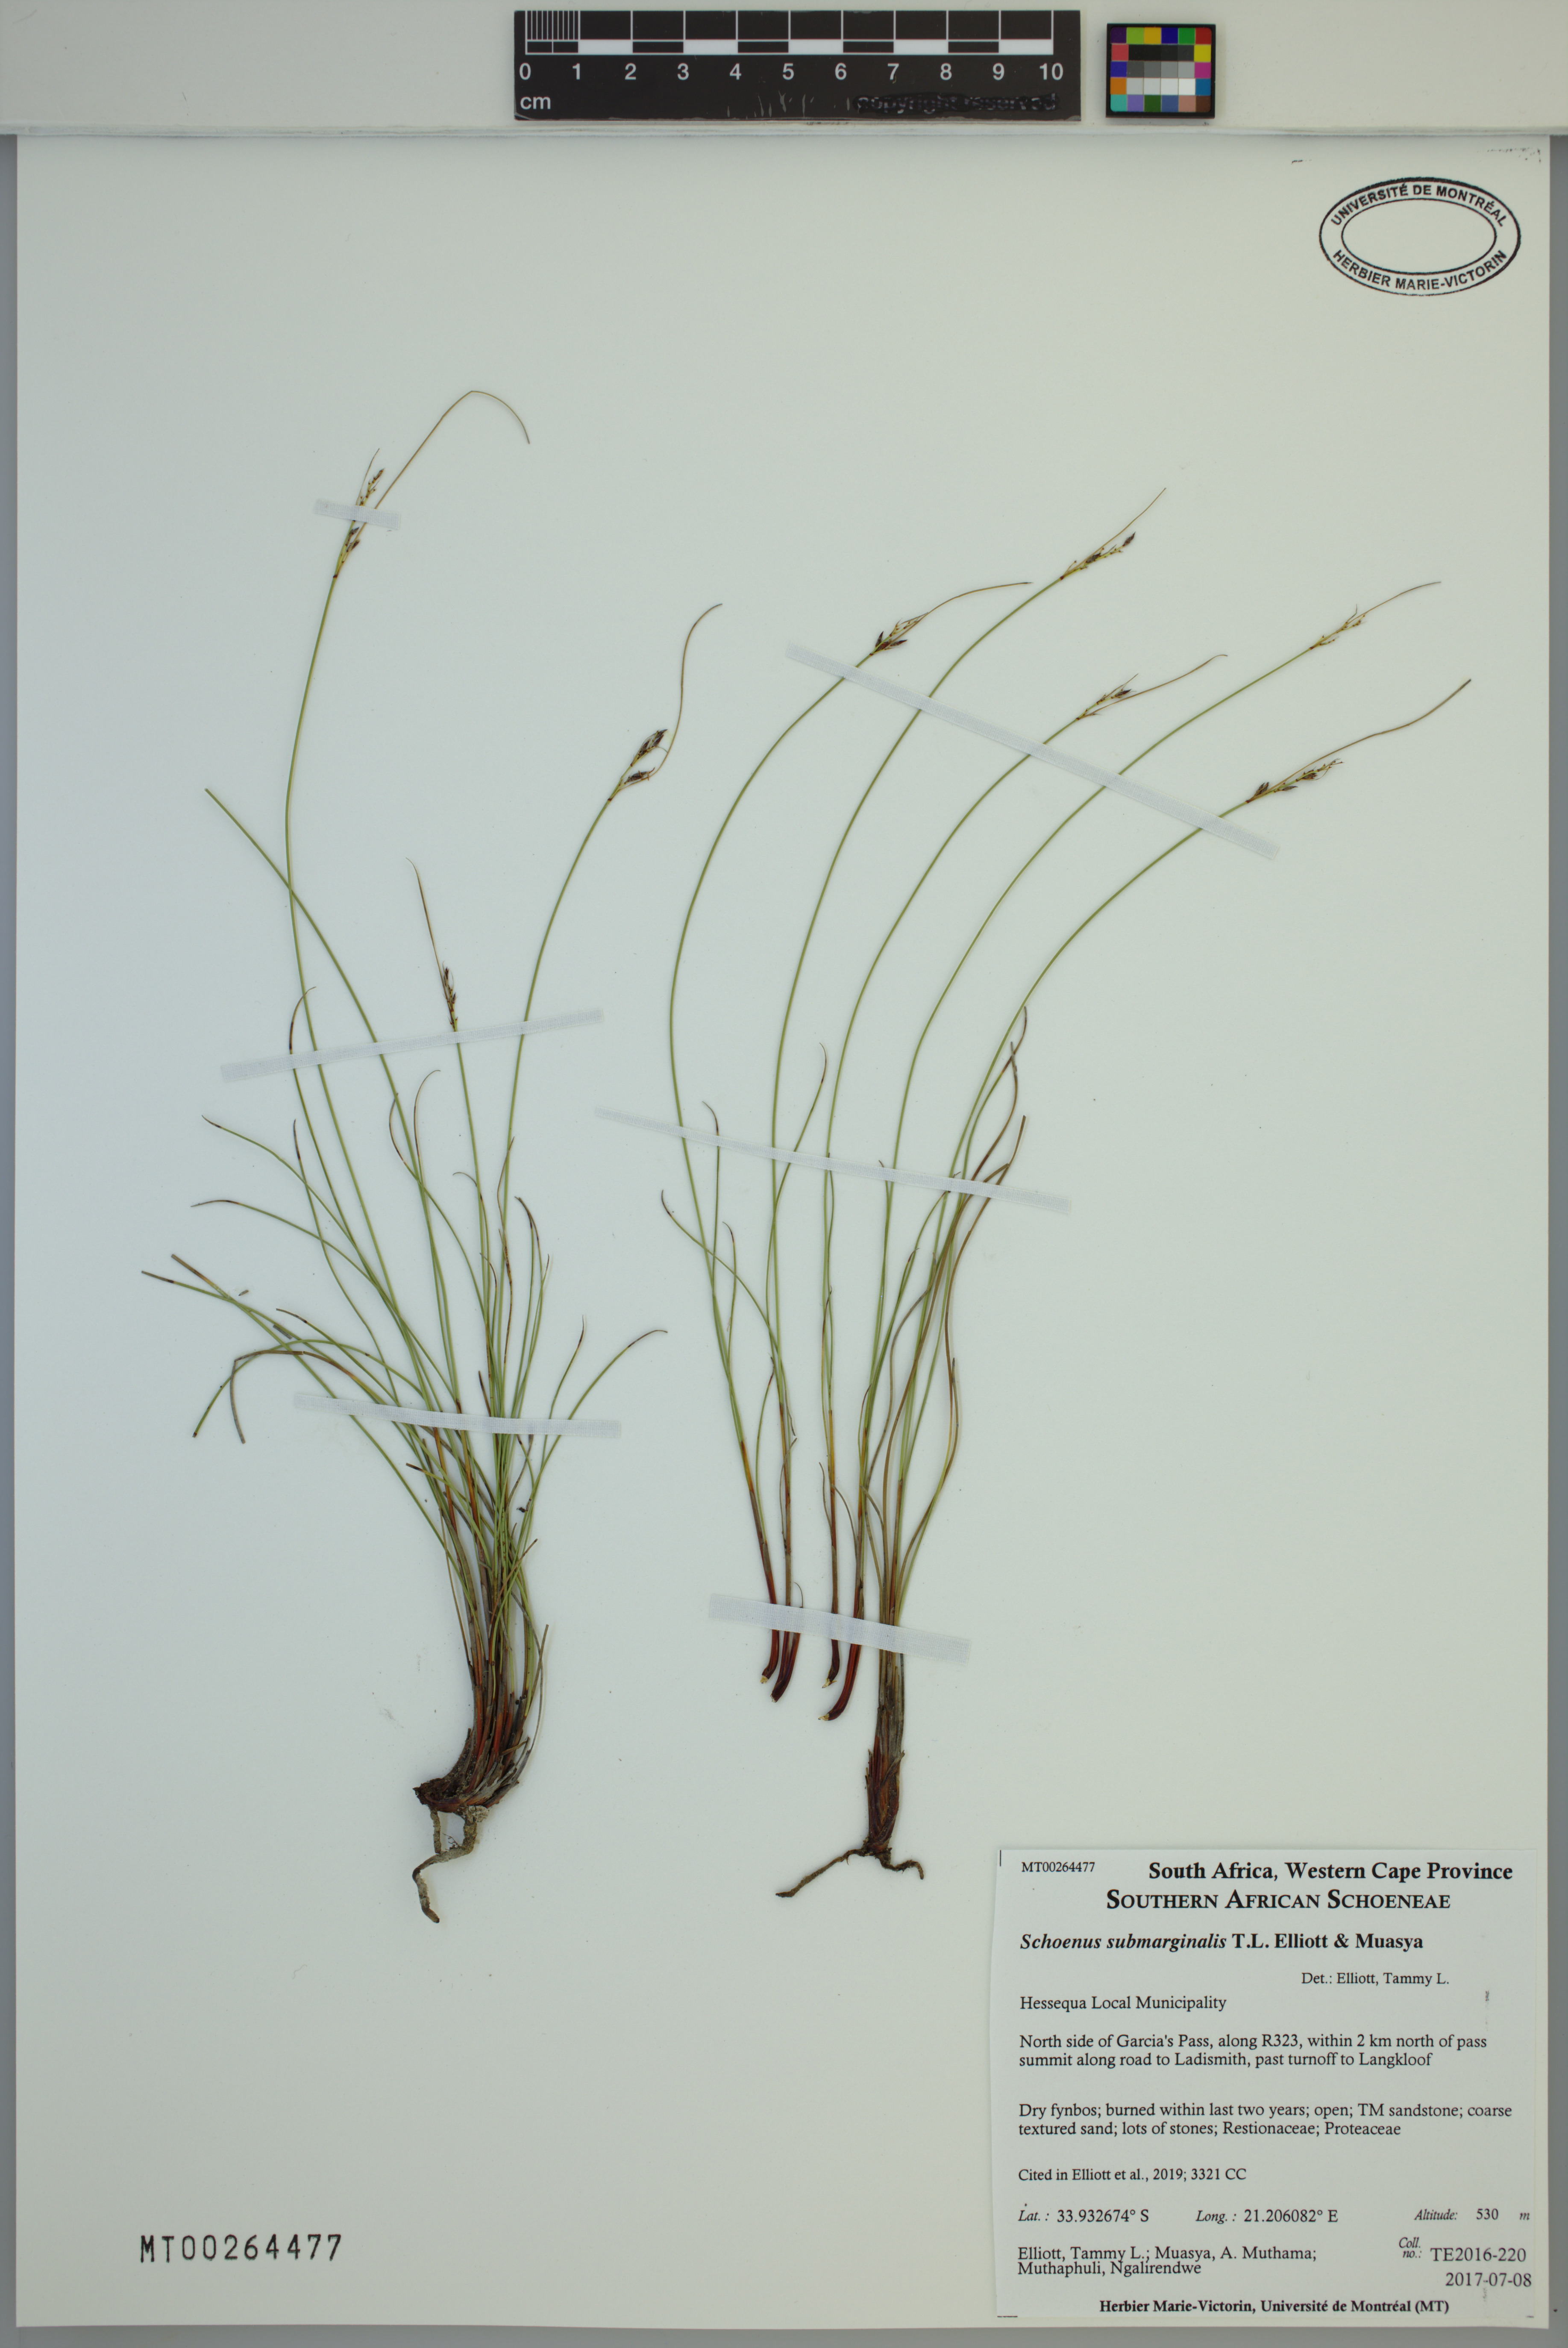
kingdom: Plantae
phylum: Tracheophyta
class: Liliopsida
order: Poales
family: Cyperaceae
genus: Schoenus
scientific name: Schoenus submarginalis
